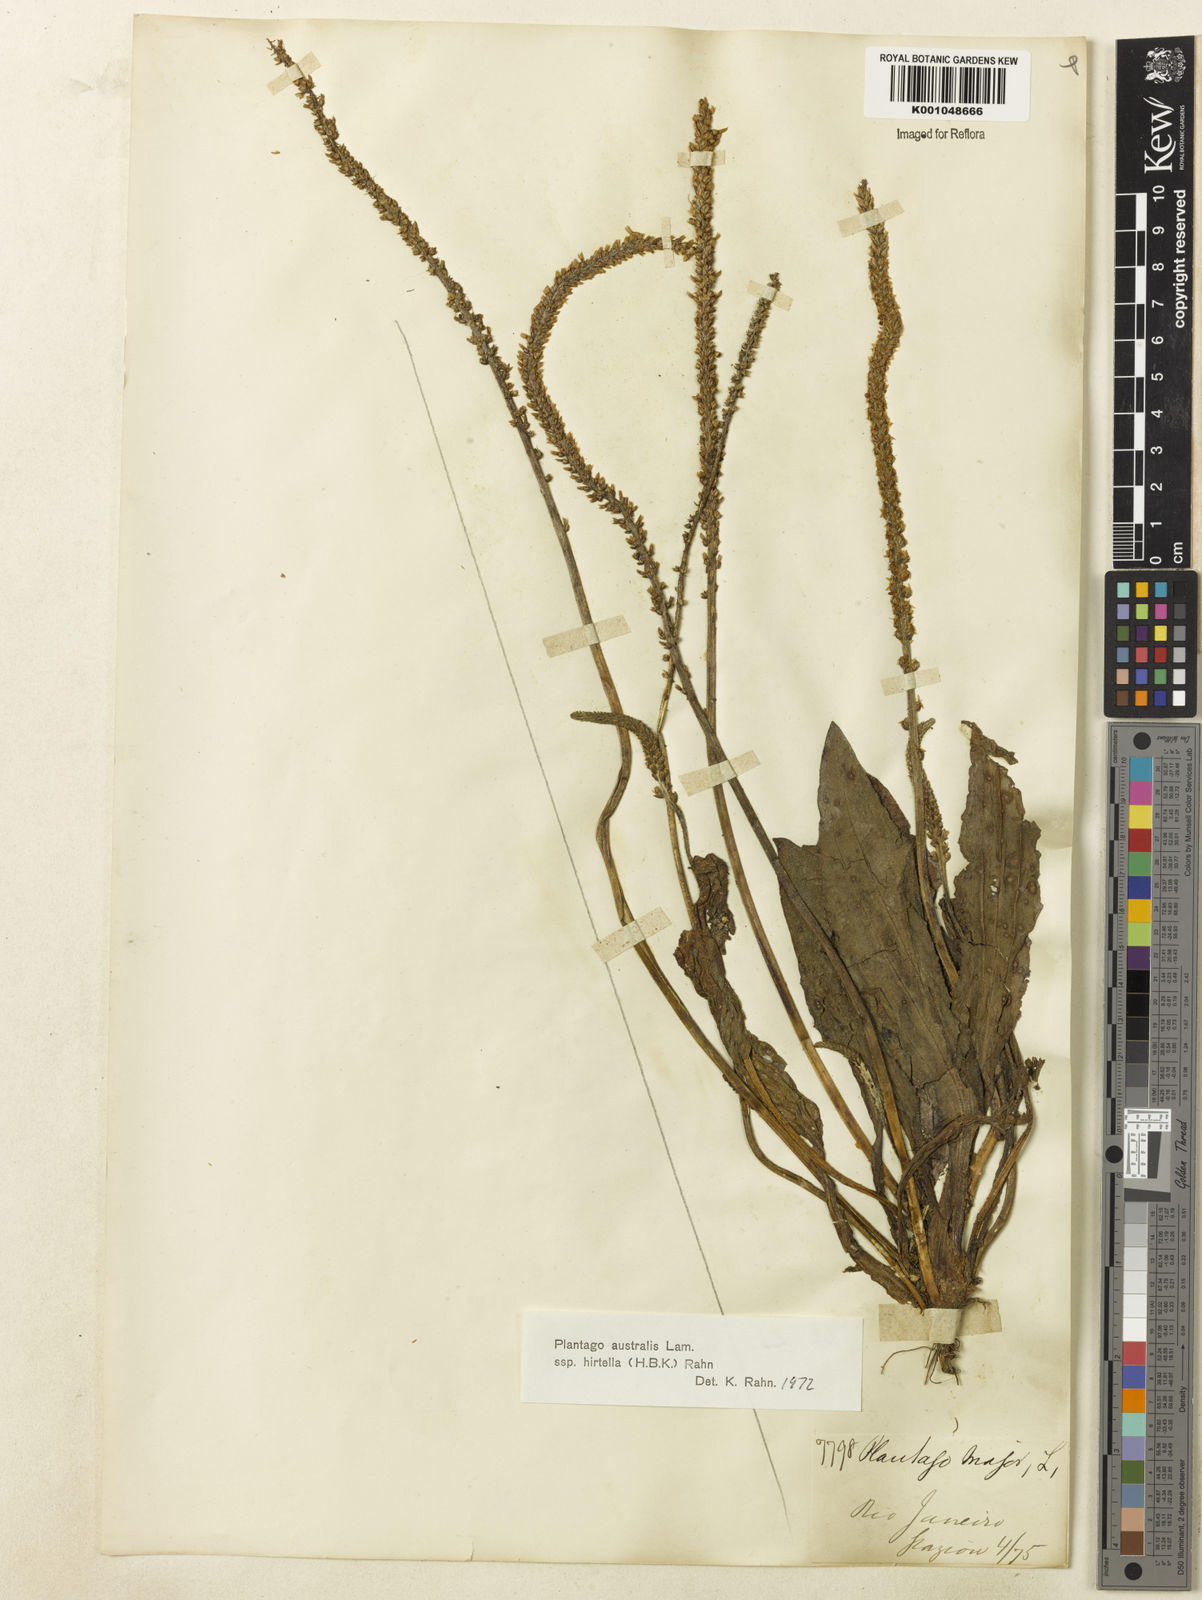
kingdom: Plantae
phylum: Tracheophyta
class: Magnoliopsida
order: Lamiales
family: Plantaginaceae
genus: Plantago
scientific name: Plantago australis
